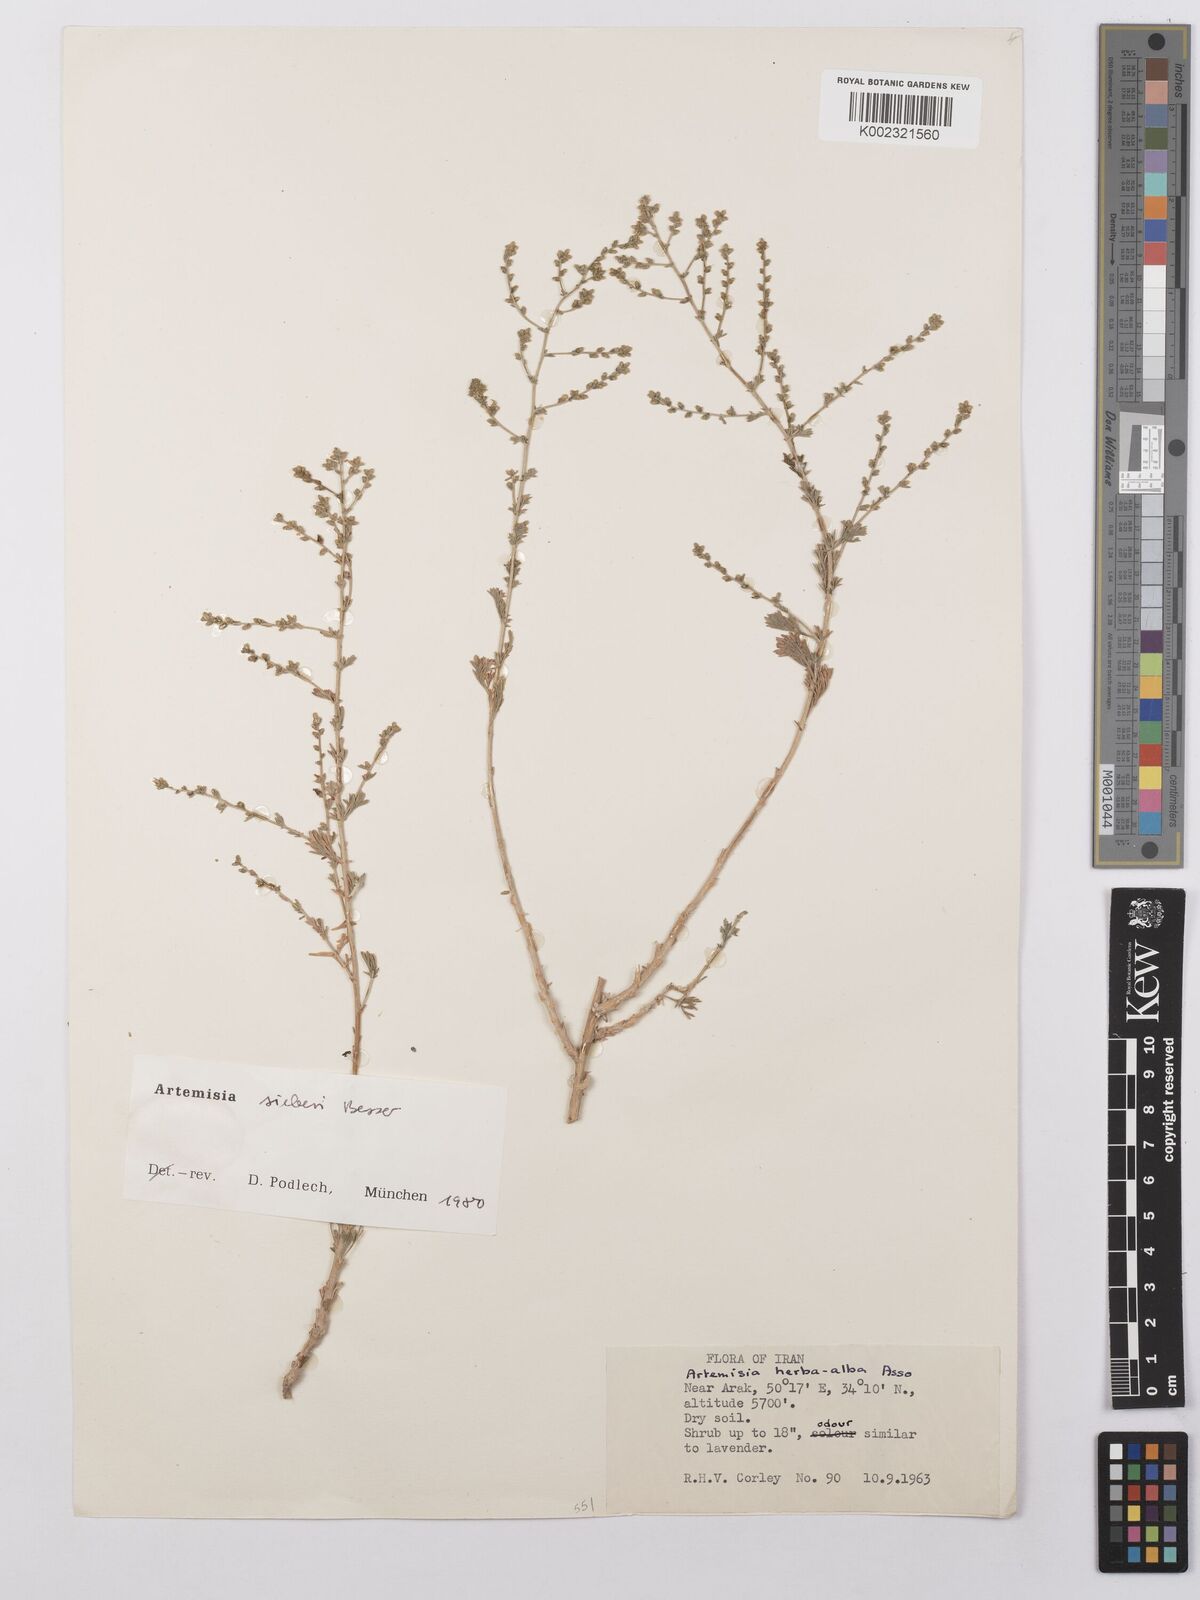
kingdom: Plantae
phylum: Tracheophyta
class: Magnoliopsida
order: Asterales
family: Asteraceae
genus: Artemisia
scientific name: Artemisia sieberi
